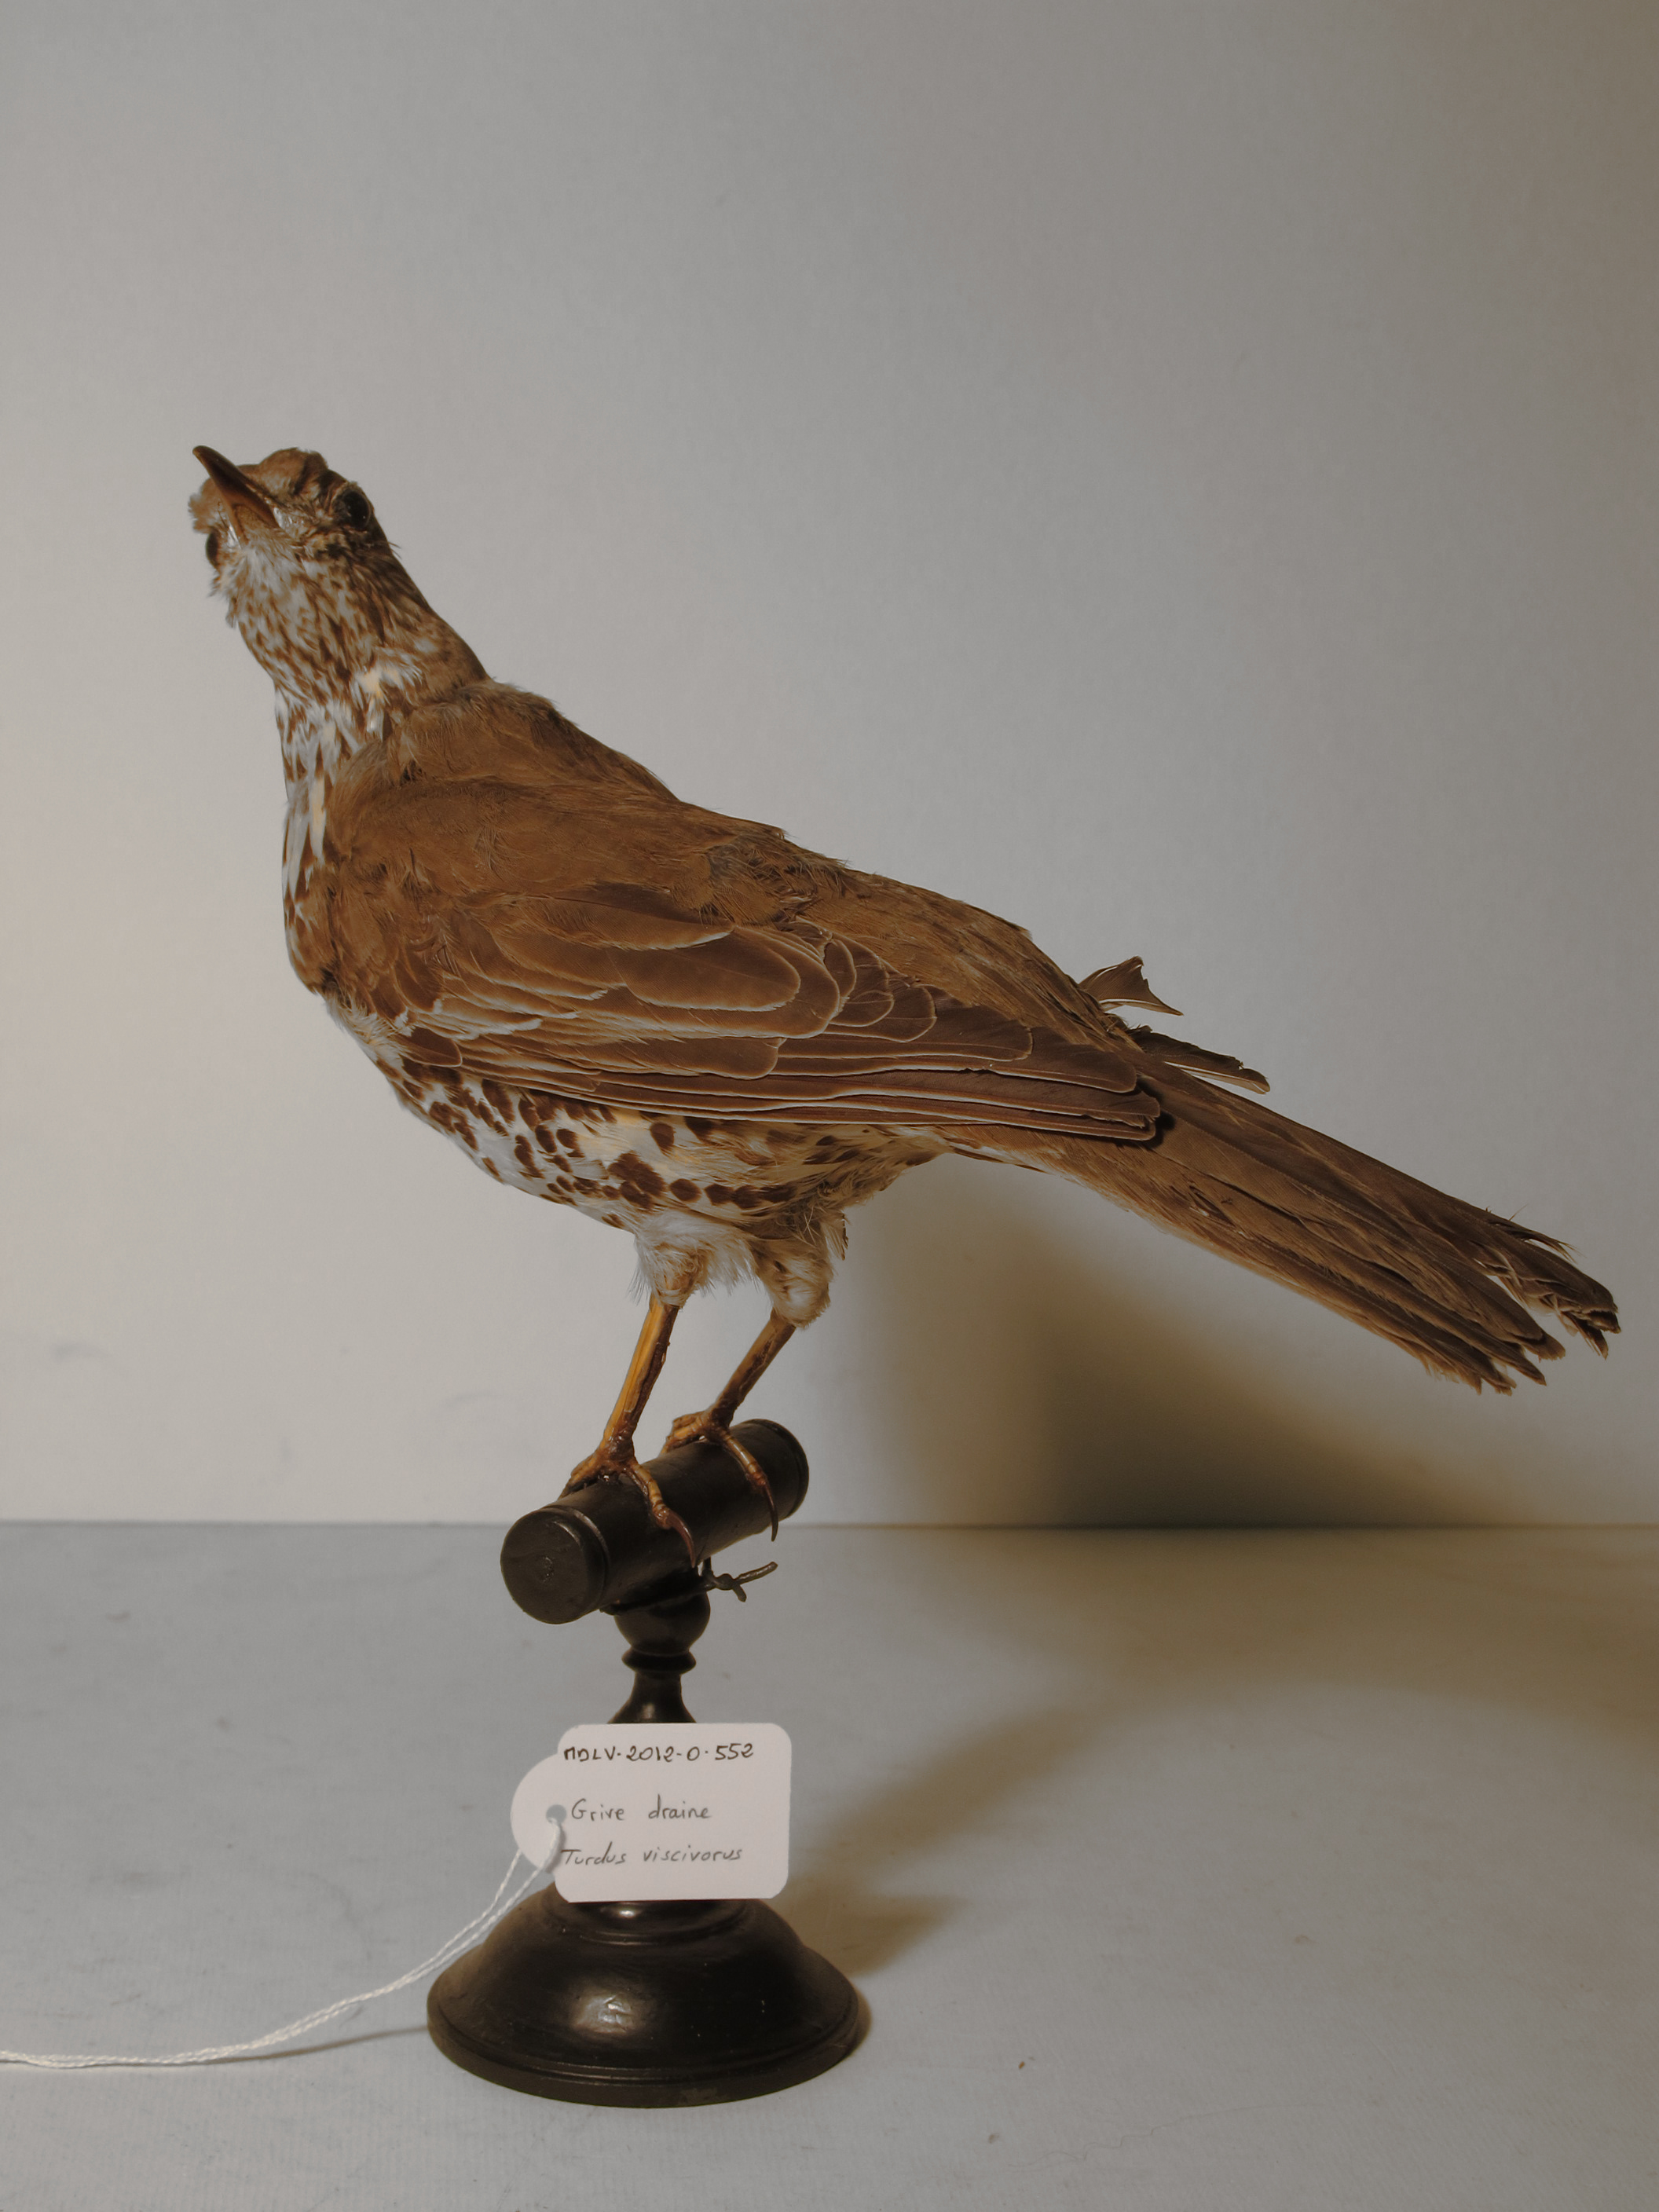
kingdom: Animalia
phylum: Chordata
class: Aves
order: Passeriformes
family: Turdidae
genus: Turdus
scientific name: Turdus viscivorus
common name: Mistle Thrush
